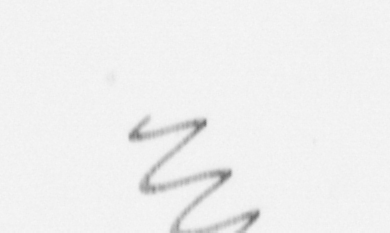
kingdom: Chromista
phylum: Ochrophyta
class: Bacillariophyceae
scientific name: Bacillariophyceae
